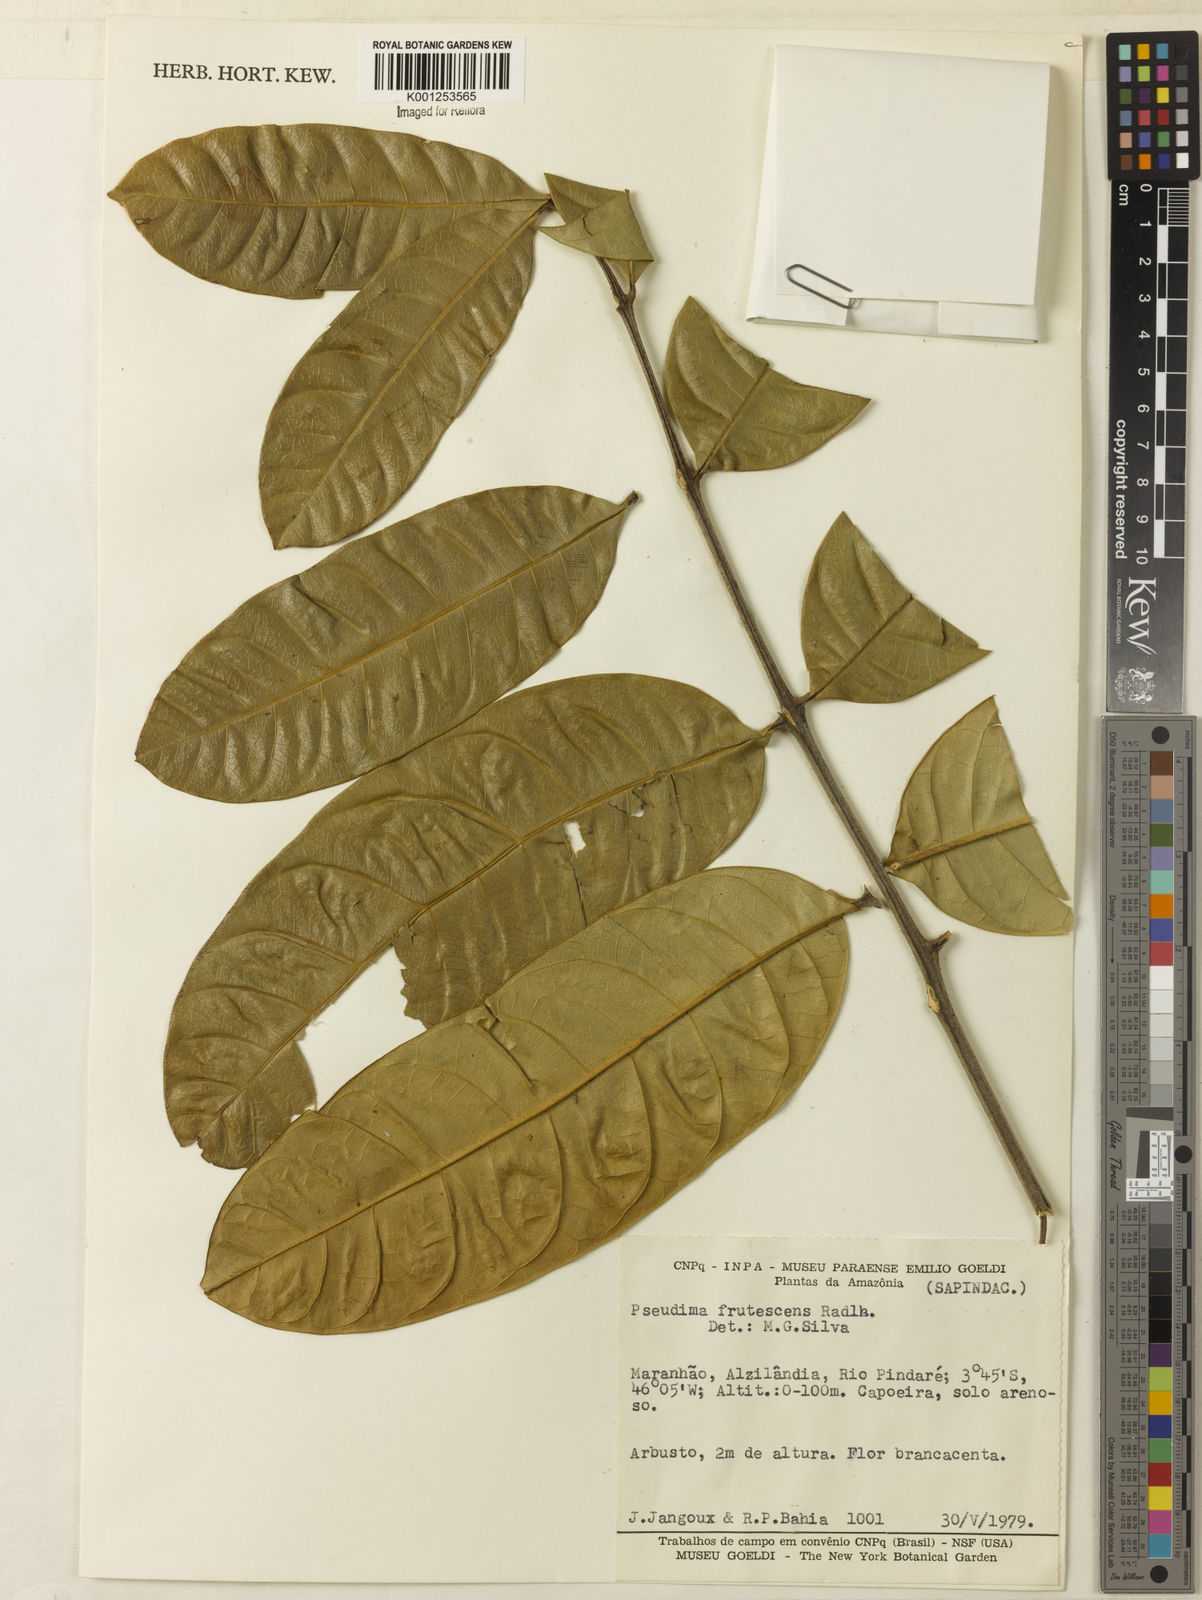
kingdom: Plantae
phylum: Tracheophyta
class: Magnoliopsida
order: Sapindales
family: Sapindaceae
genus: Pseudima
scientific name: Pseudima frutescens
